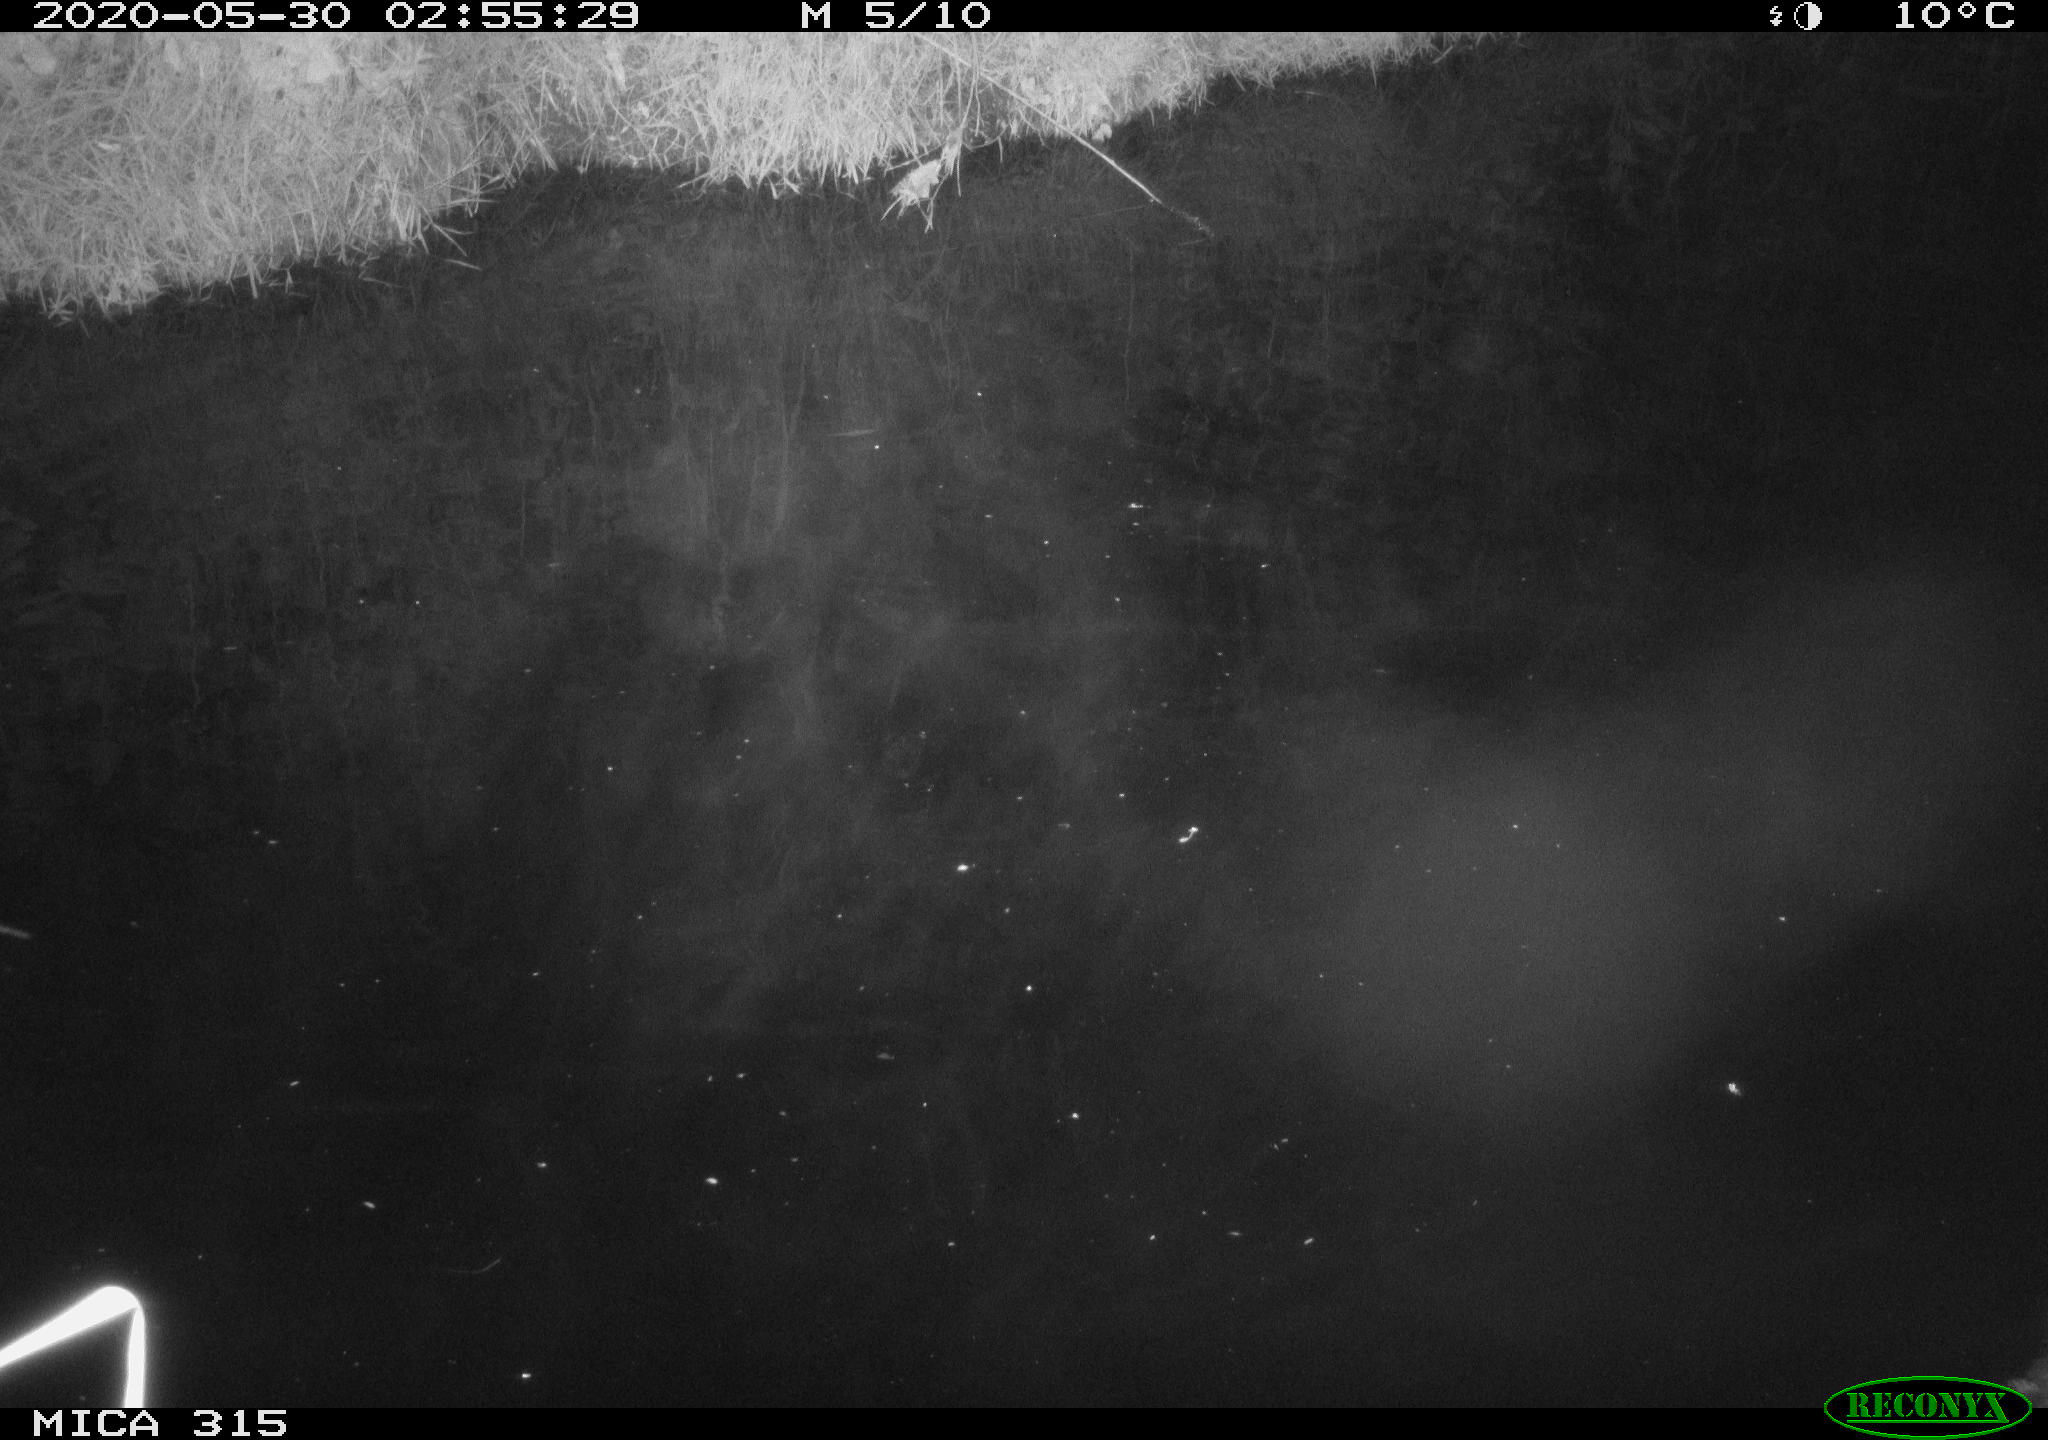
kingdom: Animalia
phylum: Chordata
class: Aves
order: Anseriformes
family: Anatidae
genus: Anas
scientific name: Anas platyrhynchos
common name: Mallard
